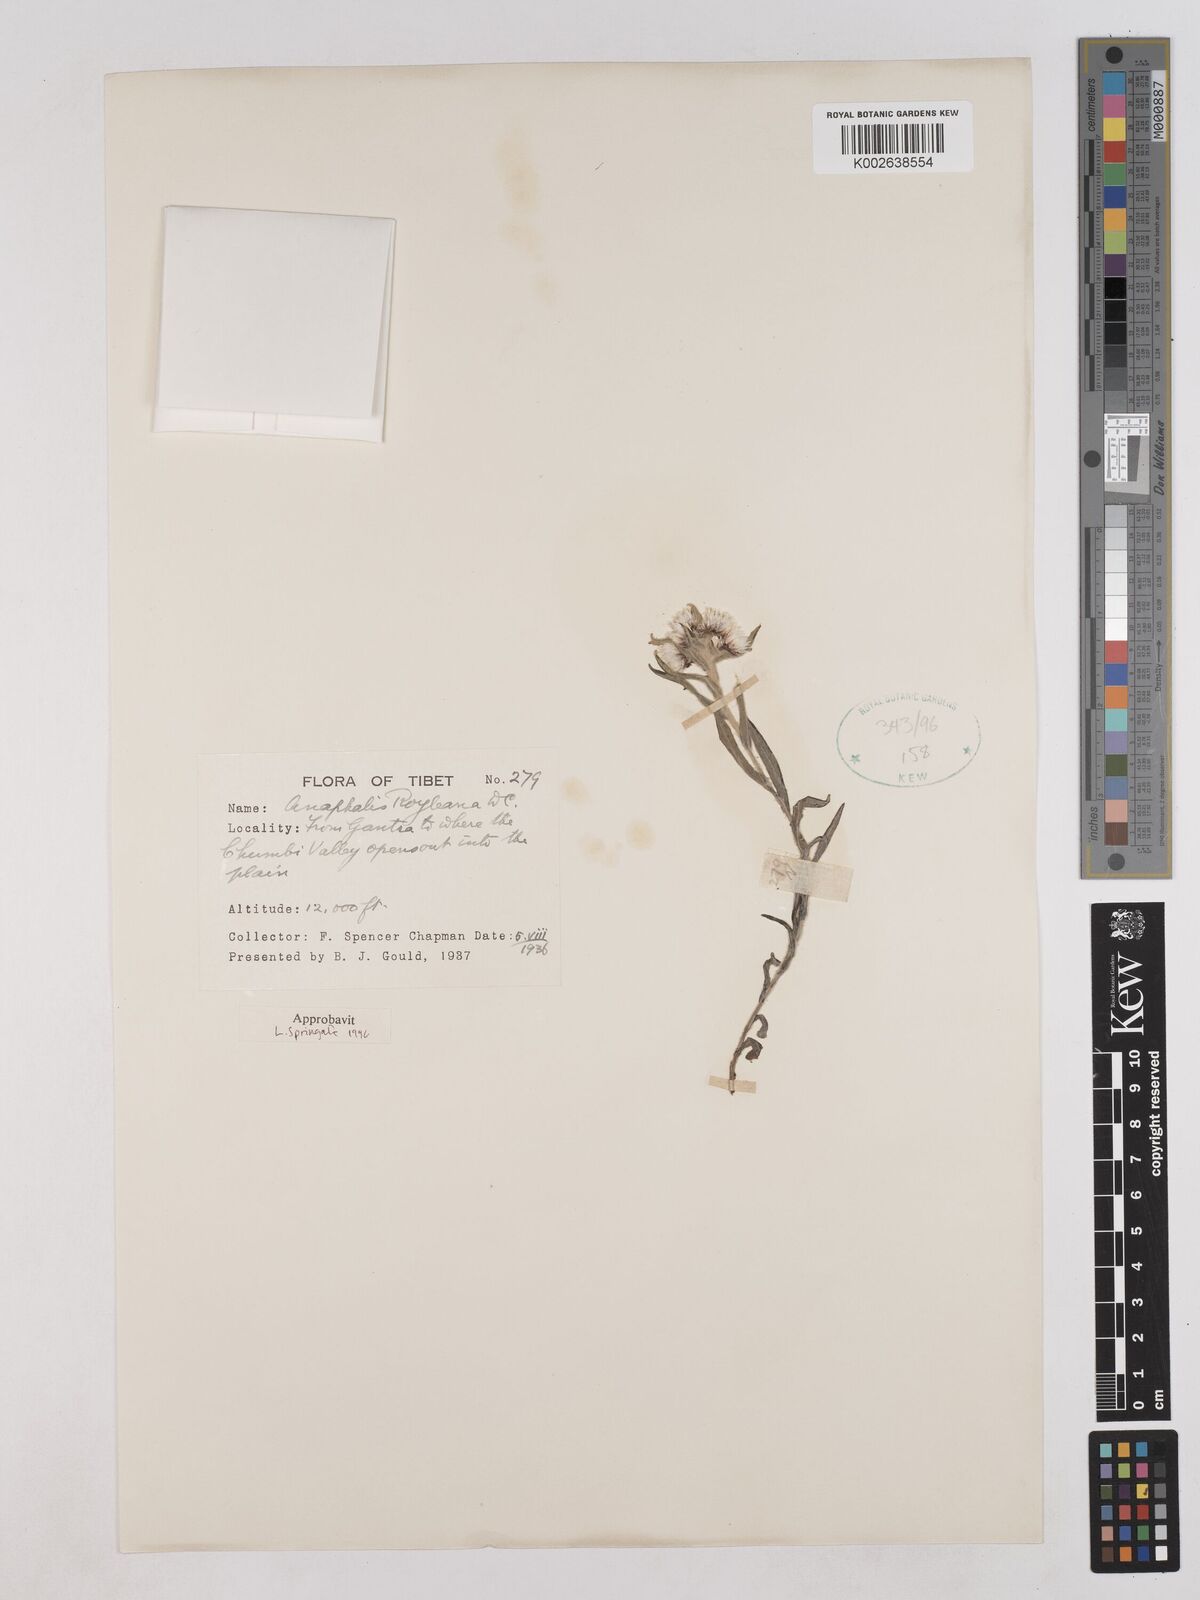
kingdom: Plantae
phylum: Tracheophyta
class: Magnoliopsida
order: Asterales
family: Asteraceae
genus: Anaphalis
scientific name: Anaphalis royleana
